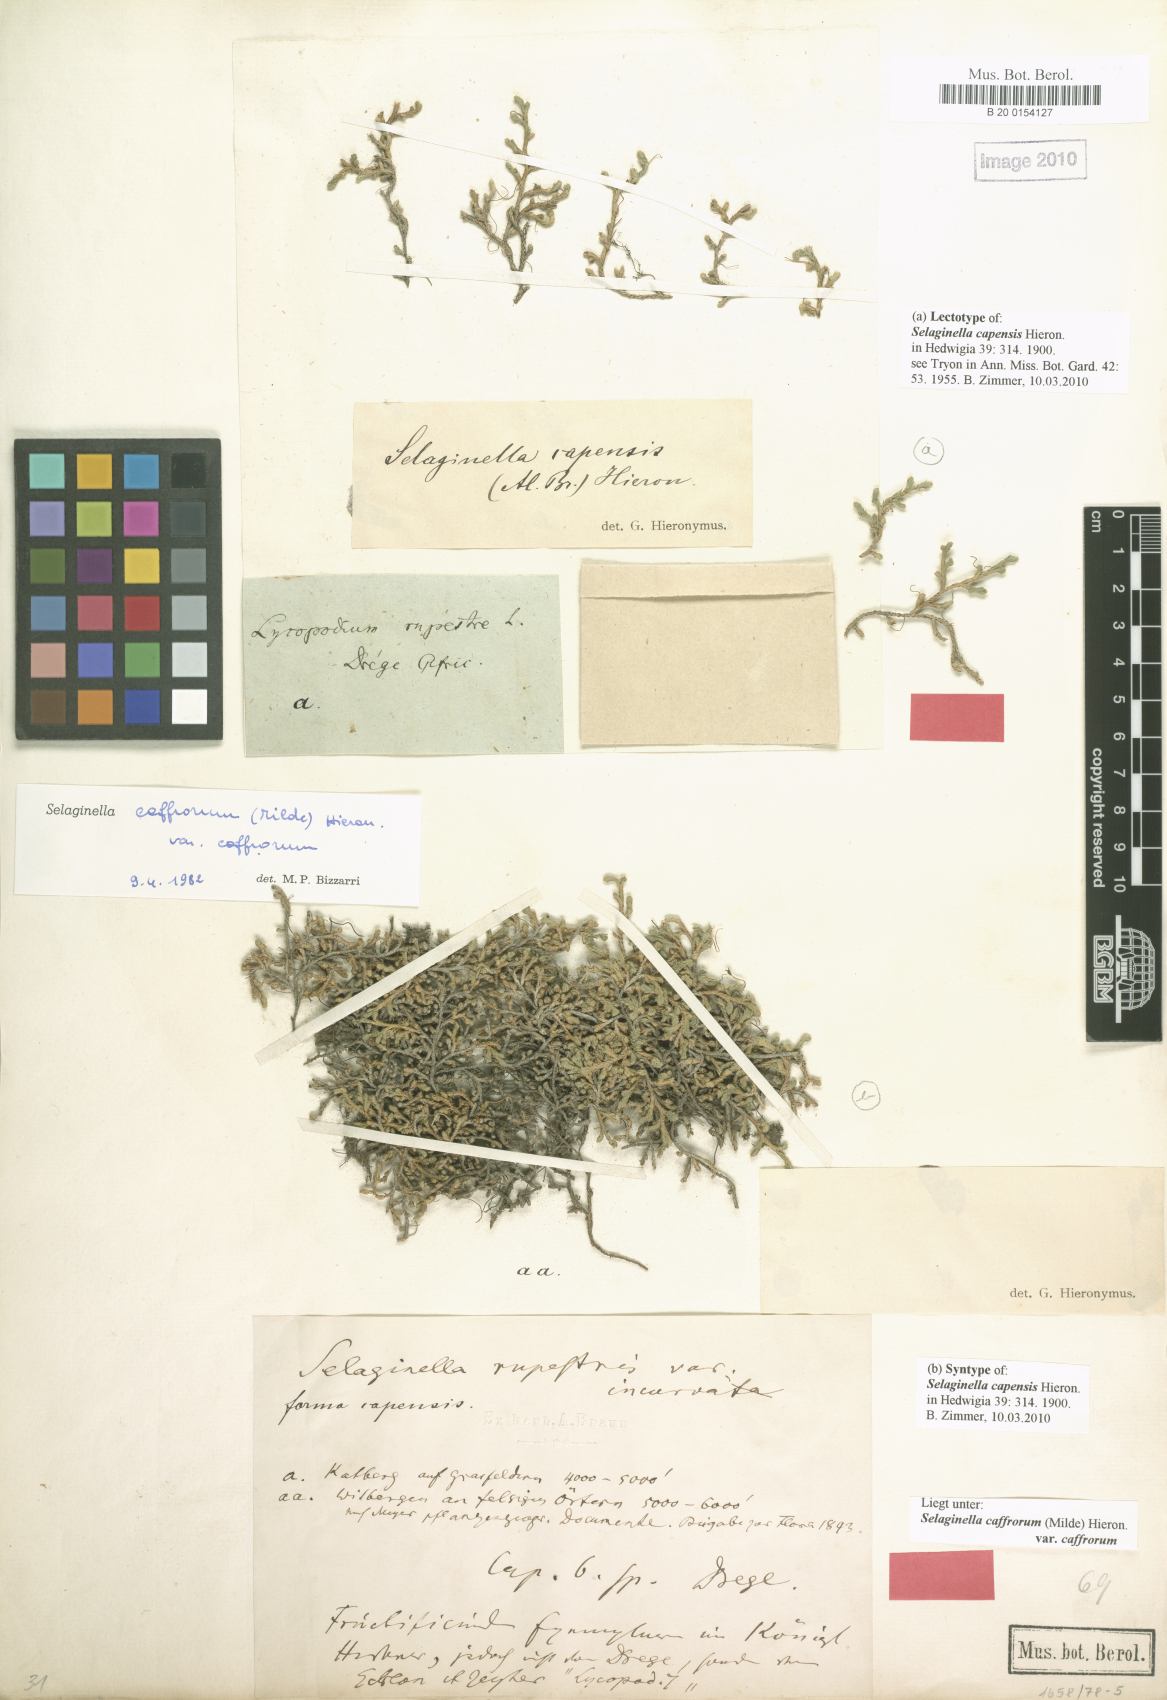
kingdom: Plantae
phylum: Tracheophyta
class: Lycopodiopsida
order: Selaginellales
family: Selaginellaceae
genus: Selaginella
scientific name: Selaginella caffrorum
